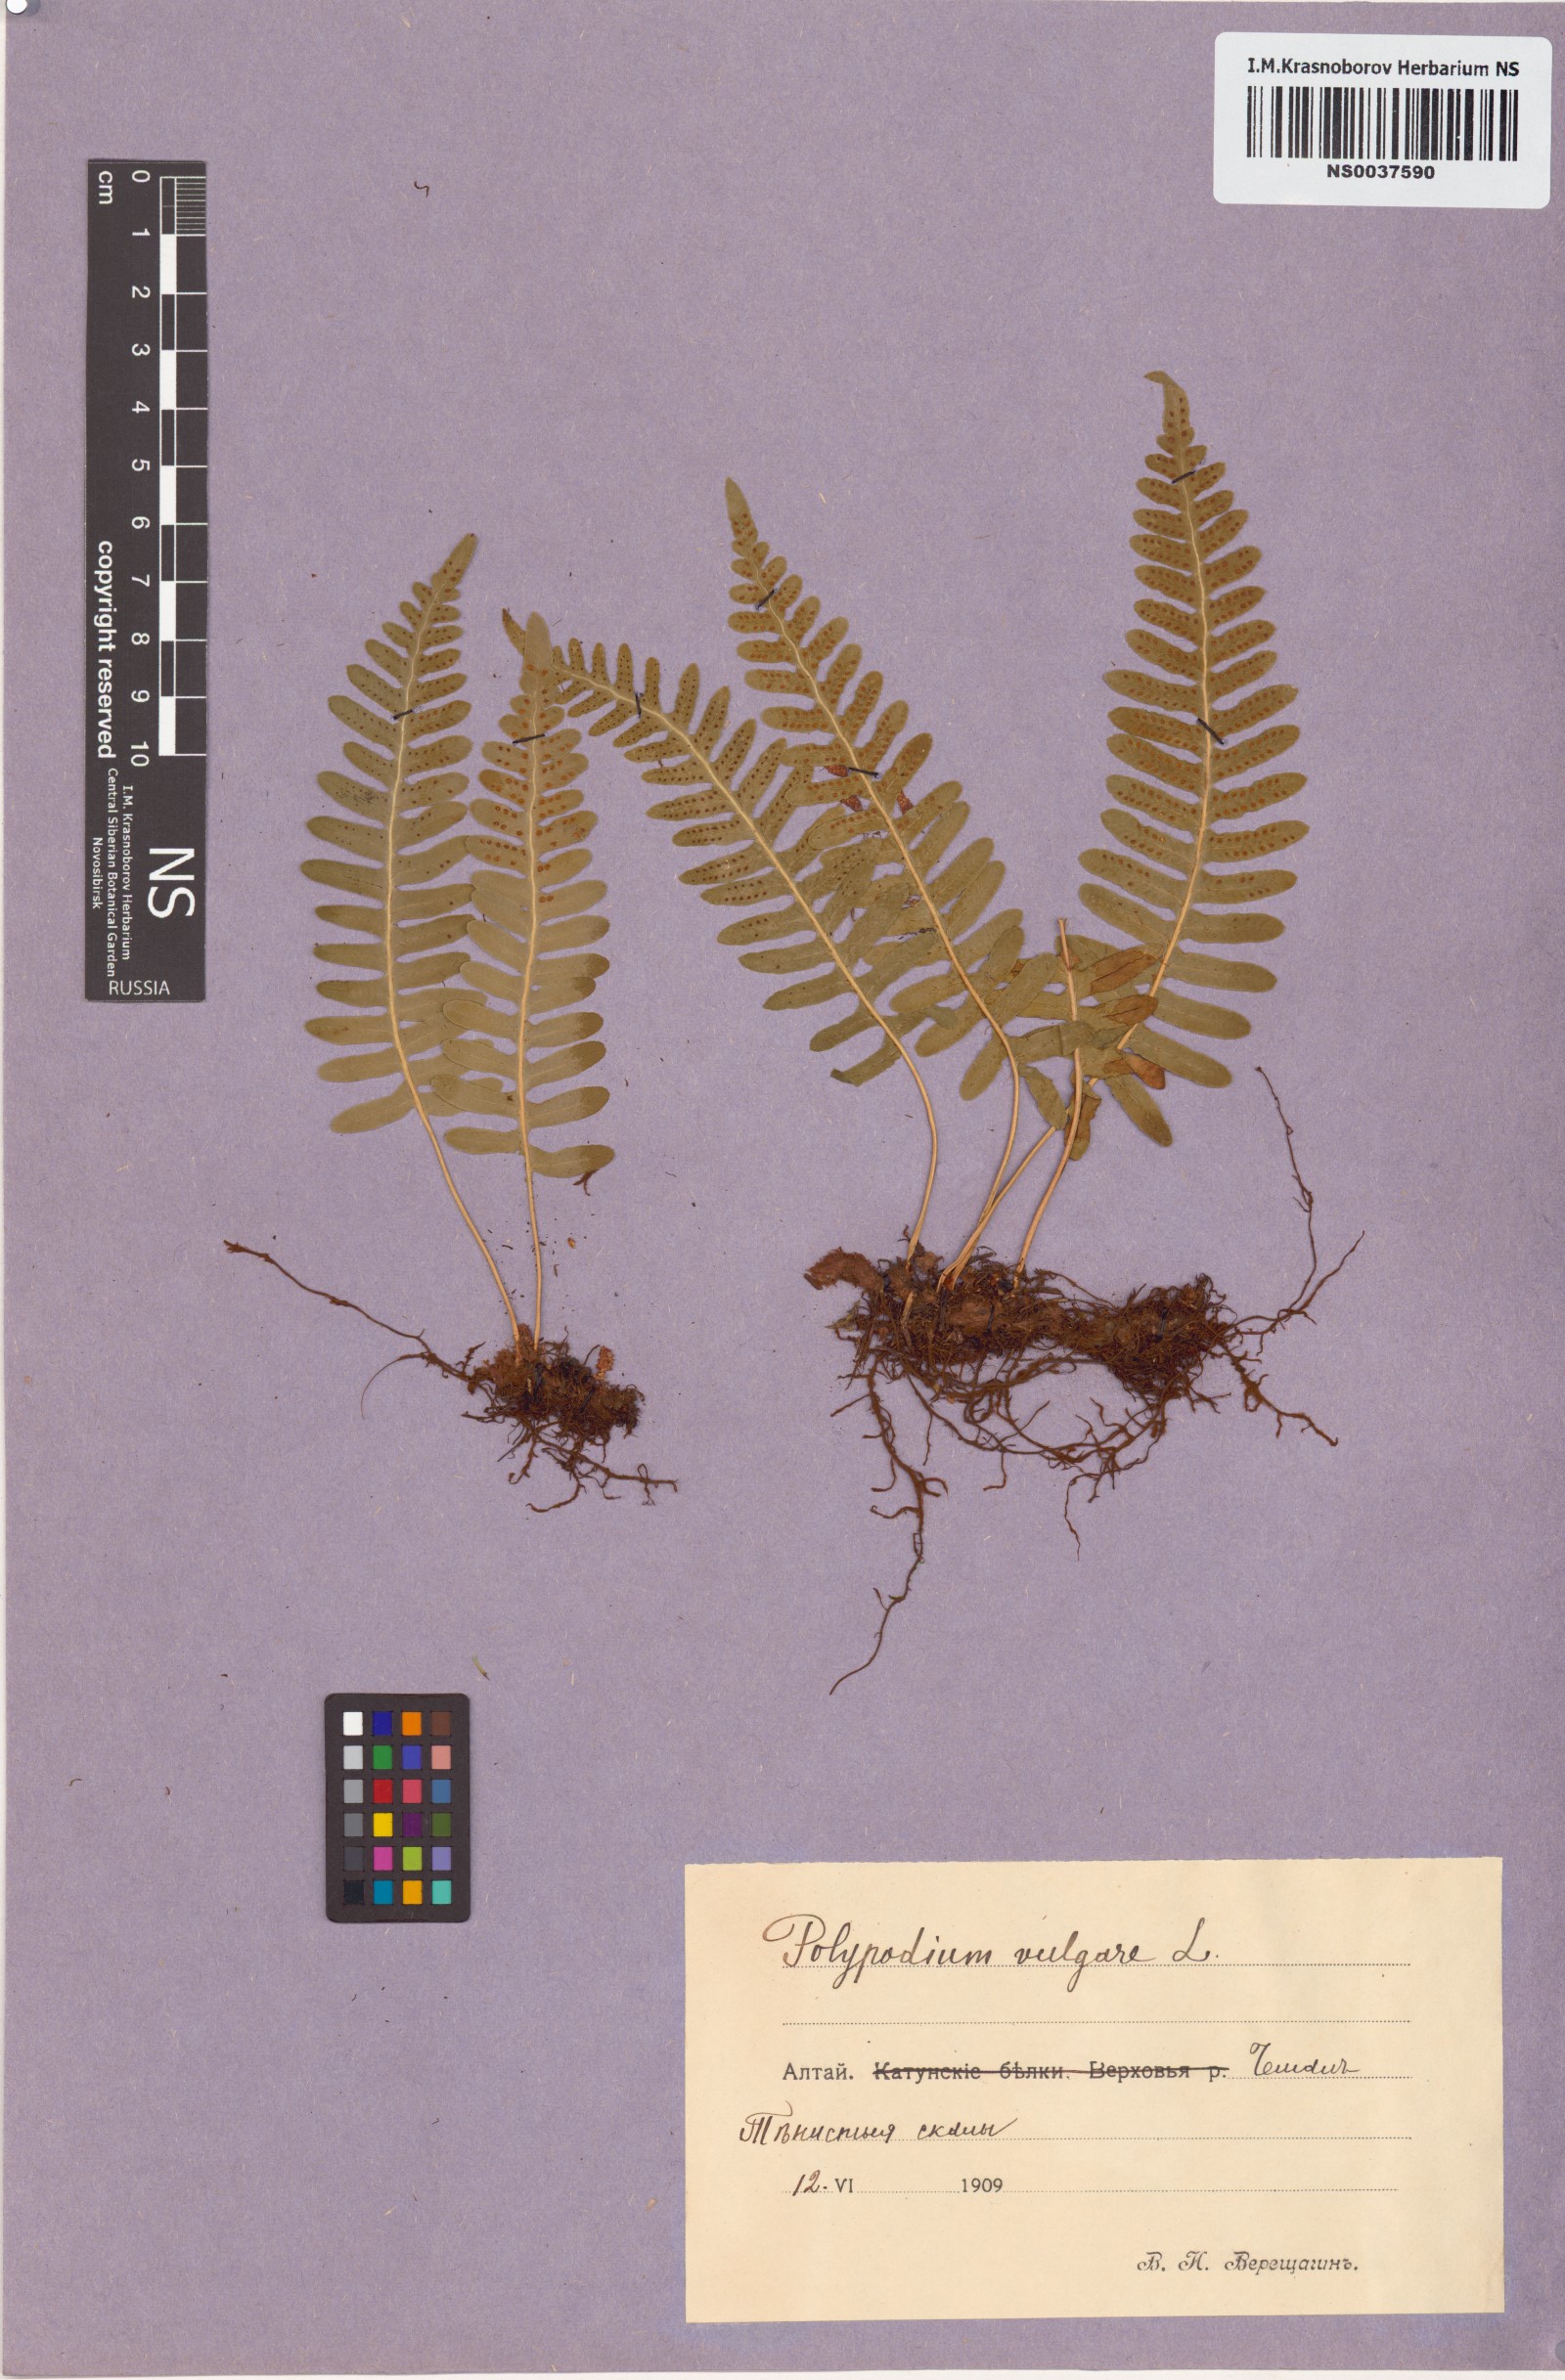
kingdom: Plantae
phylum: Tracheophyta
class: Polypodiopsida
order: Polypodiales
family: Polypodiaceae
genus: Polypodium
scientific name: Polypodium vulgare
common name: Common polypody
